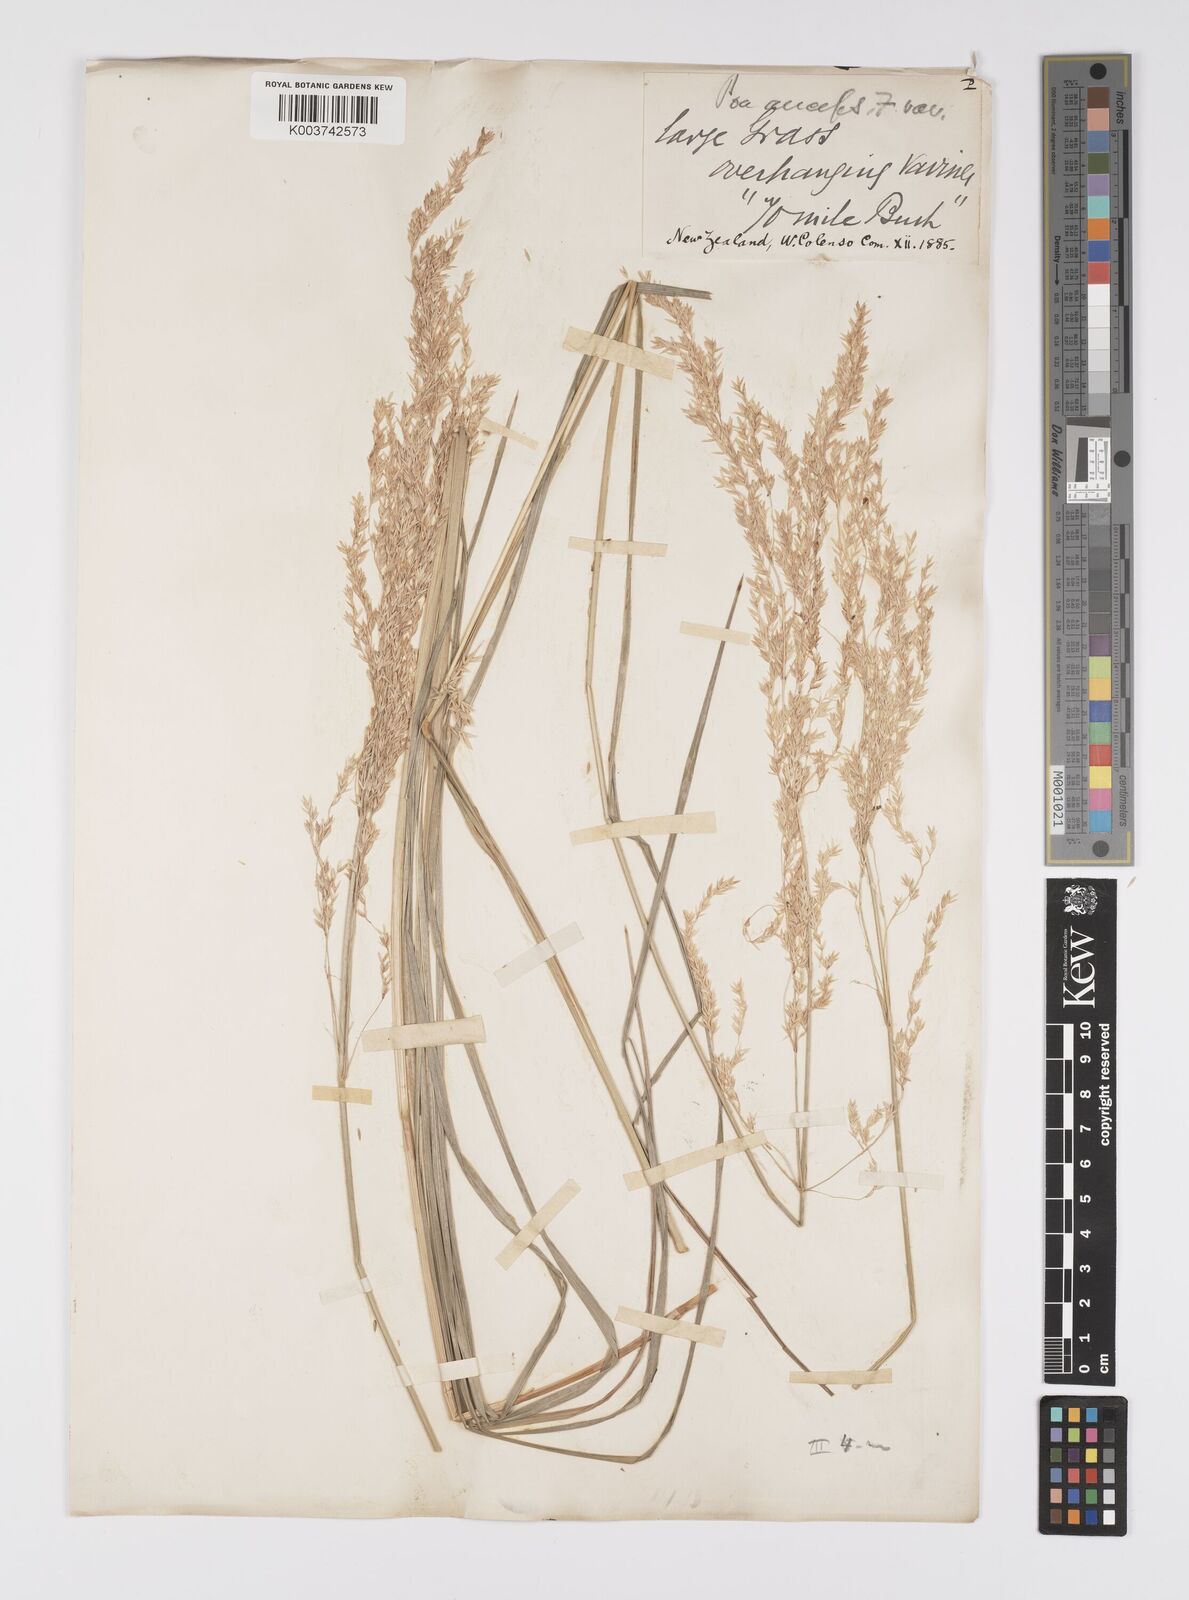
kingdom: Plantae
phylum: Tracheophyta
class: Liliopsida
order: Poales
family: Poaceae
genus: Poa
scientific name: Poa anceps
